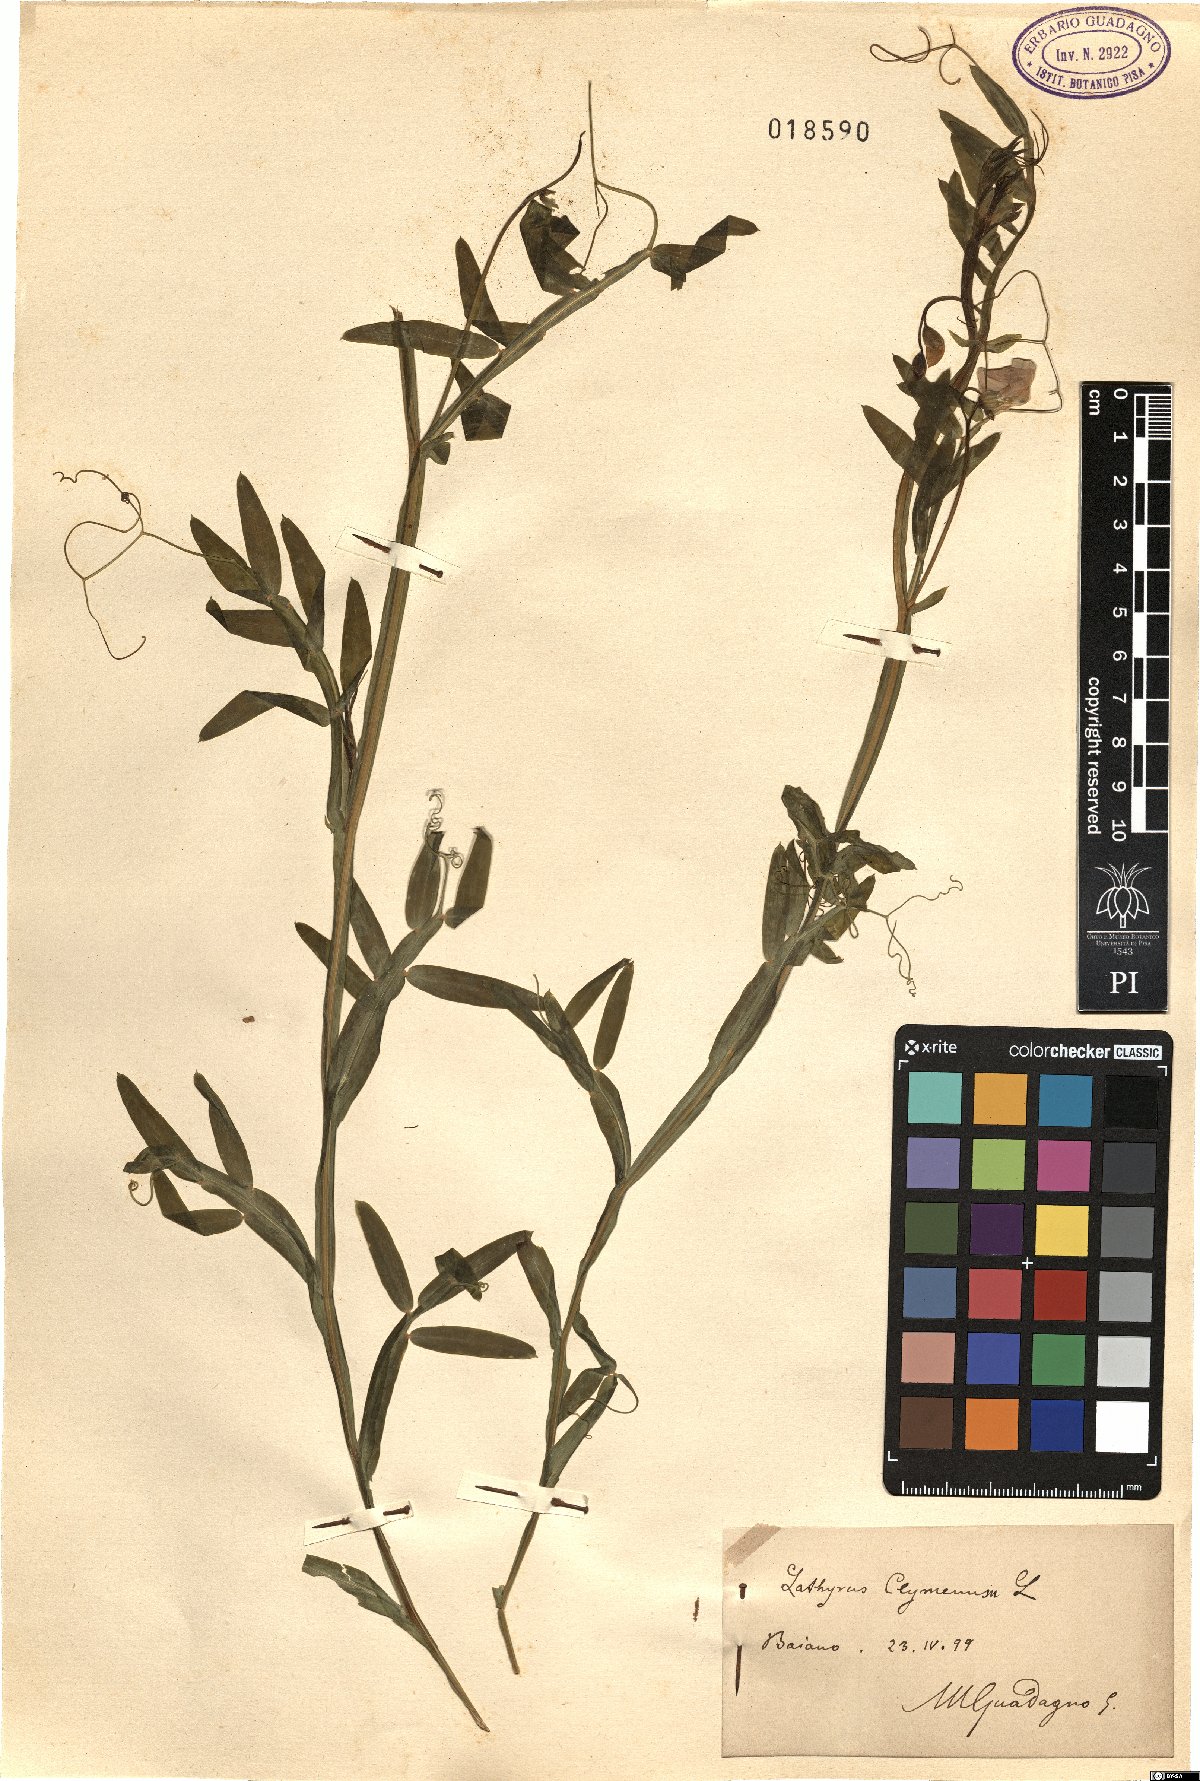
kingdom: Plantae
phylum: Tracheophyta
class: Magnoliopsida
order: Fabales
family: Fabaceae
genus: Lathyrus
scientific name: Lathyrus clymenum
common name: Spanish vetchling
